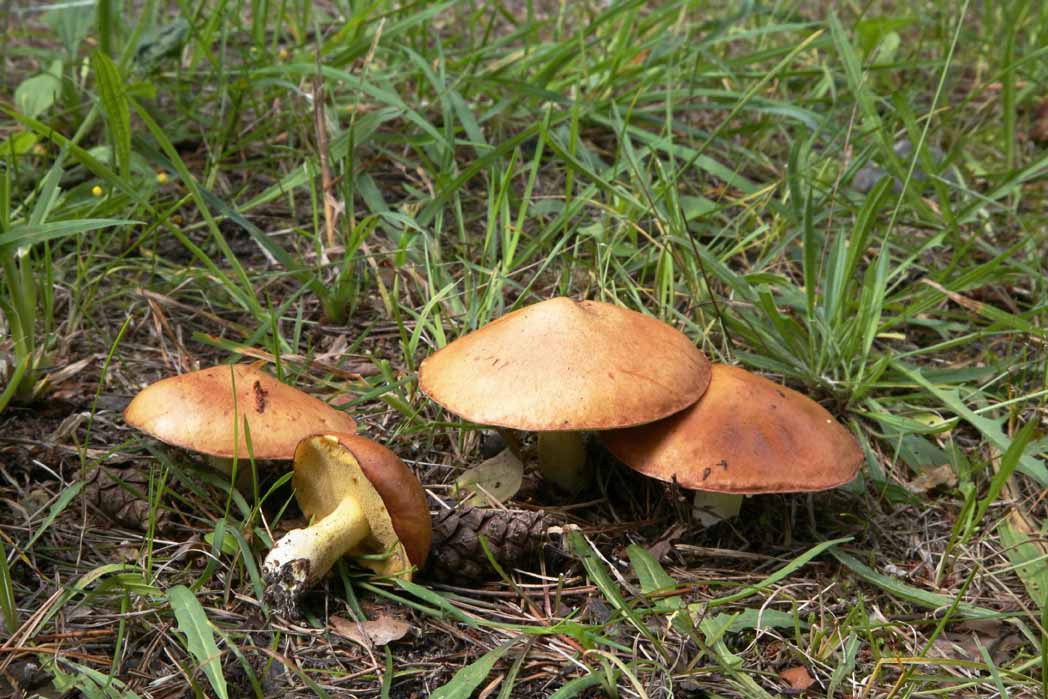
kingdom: Fungi
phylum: Basidiomycota
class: Agaricomycetes
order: Boletales
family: Suillaceae
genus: Suillus
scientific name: Suillus granulatus
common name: kornet slimrørhat
